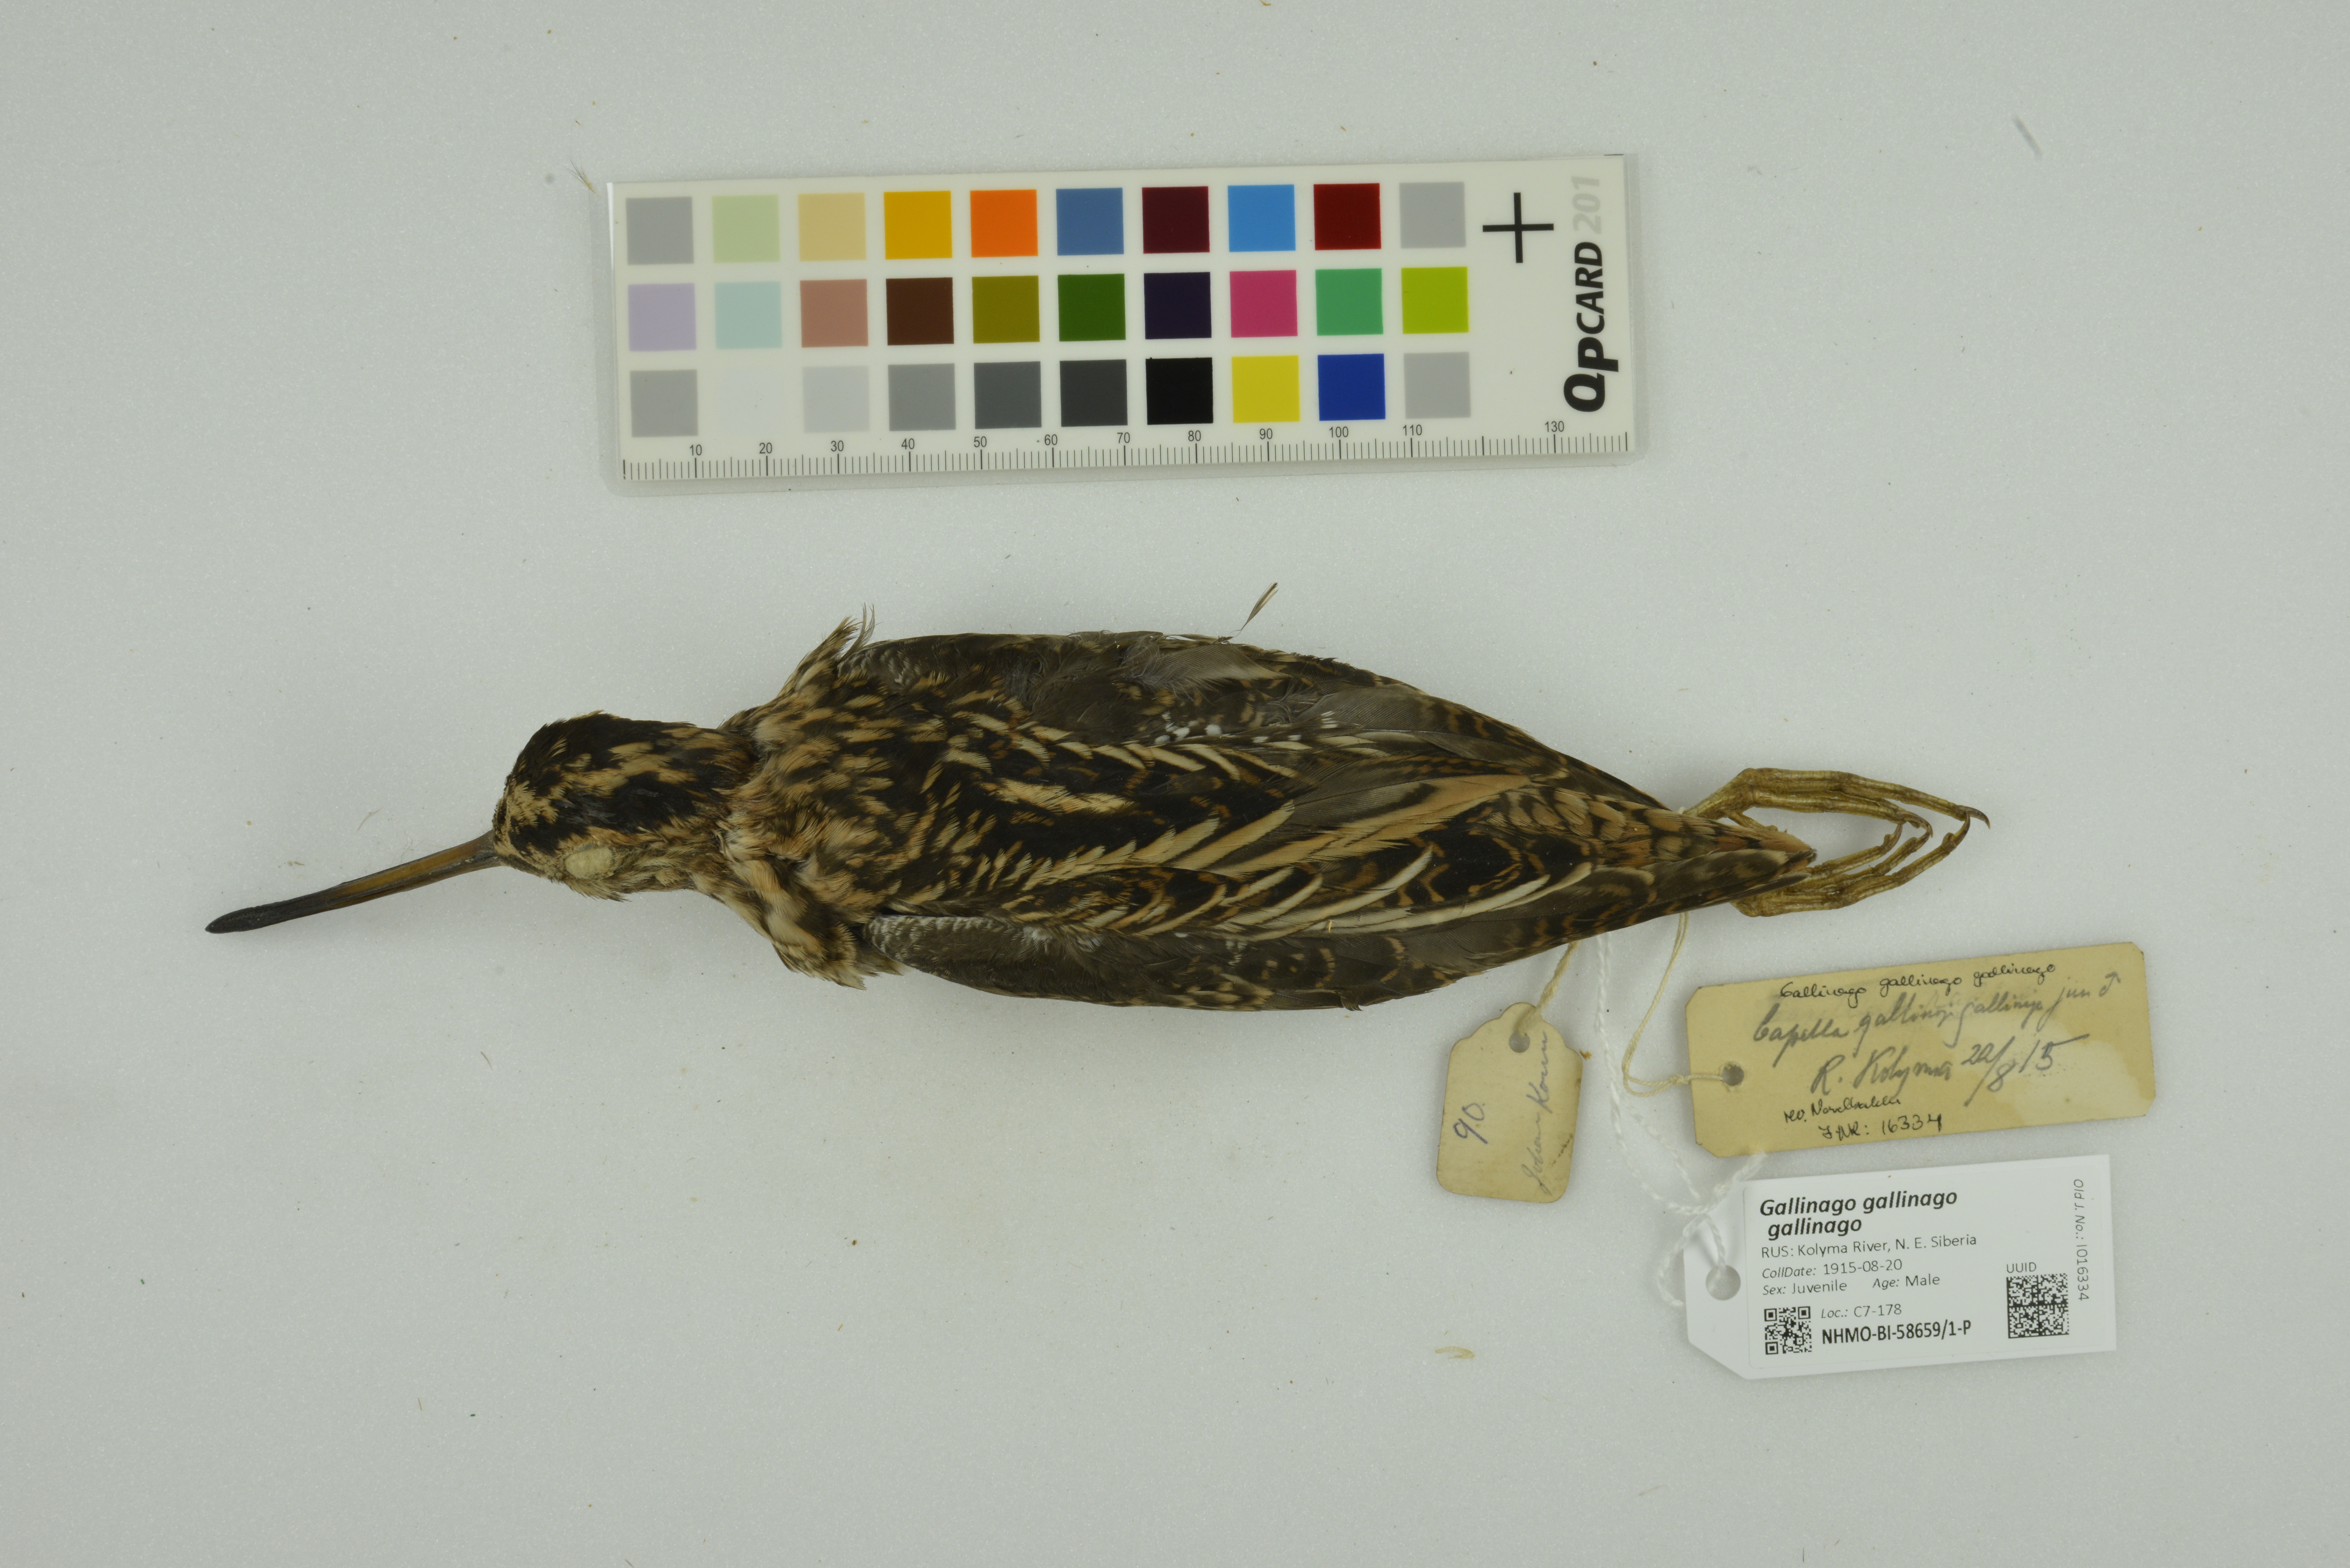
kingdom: Animalia
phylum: Chordata
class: Aves
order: Charadriiformes
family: Scolopacidae
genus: Gallinago
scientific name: Gallinago gallinago
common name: Common snipe
